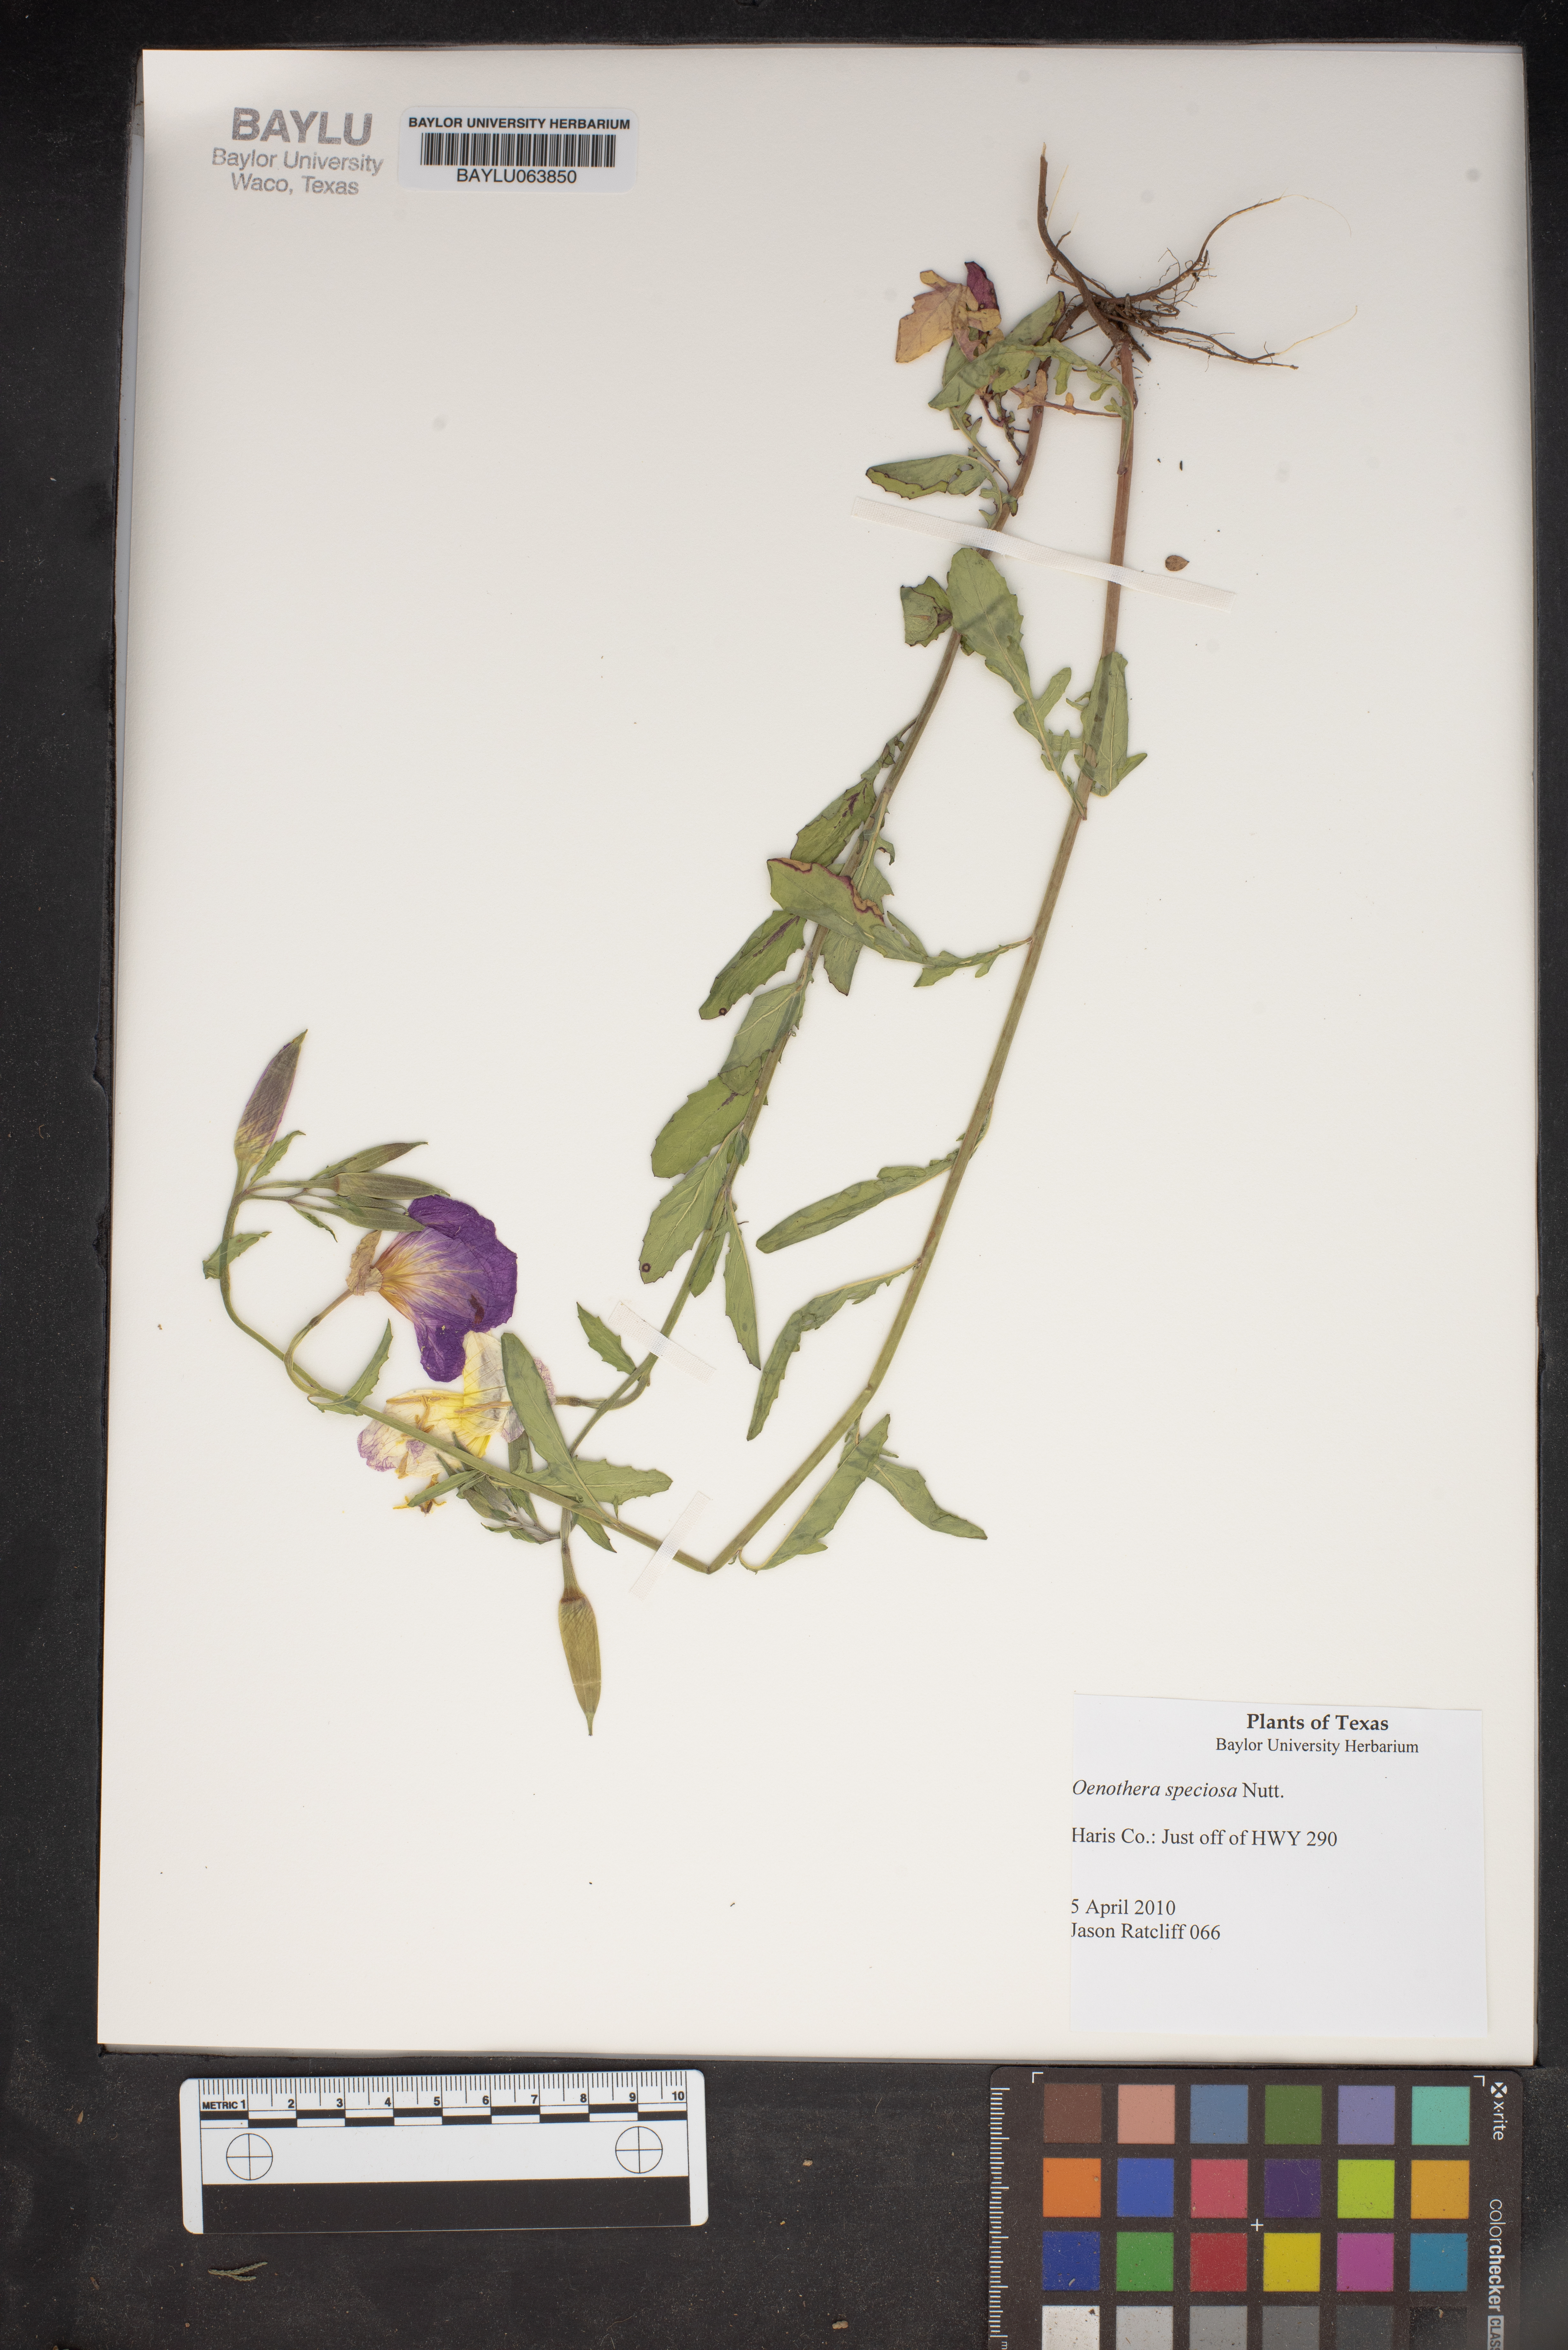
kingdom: Plantae
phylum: Tracheophyta
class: Magnoliopsida
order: Myrtales
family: Onagraceae
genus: Oenothera
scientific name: Oenothera speciosa
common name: White evening-primrose
